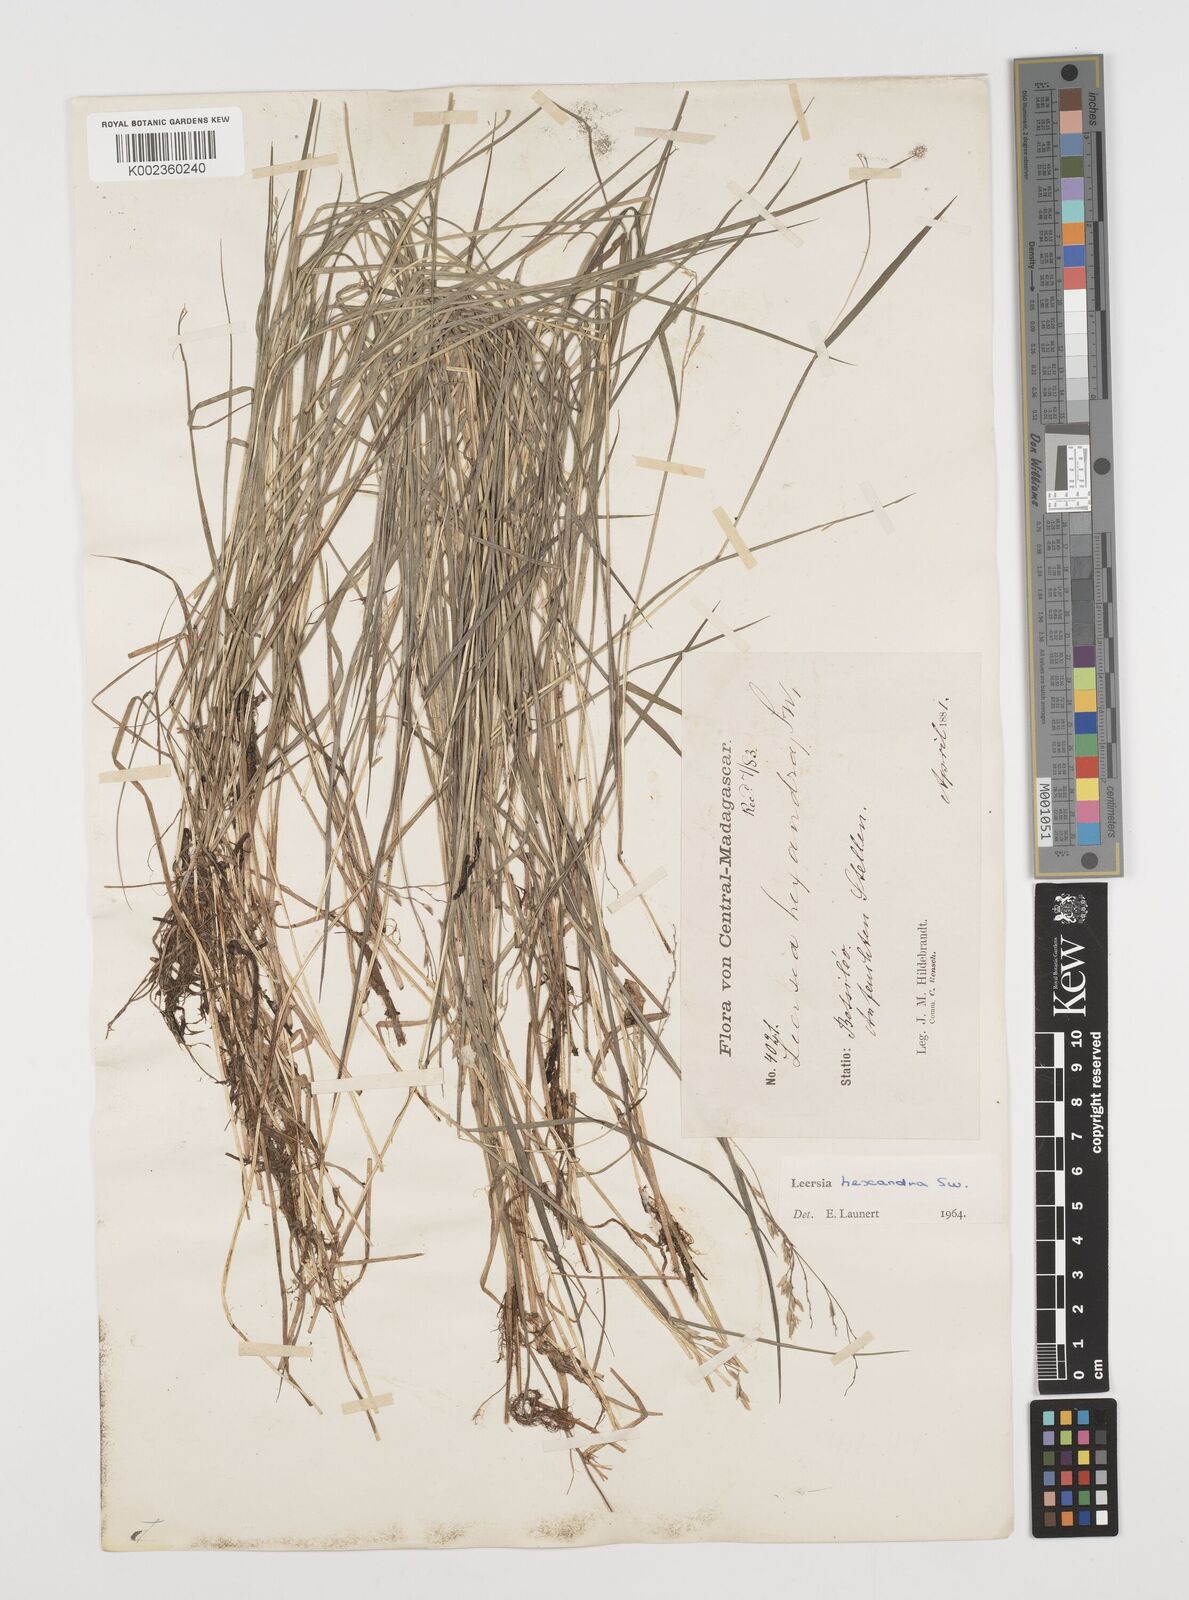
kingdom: Plantae
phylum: Tracheophyta
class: Liliopsida
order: Poales
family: Poaceae
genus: Leersia
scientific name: Leersia hexandra
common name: Southern cut grass
